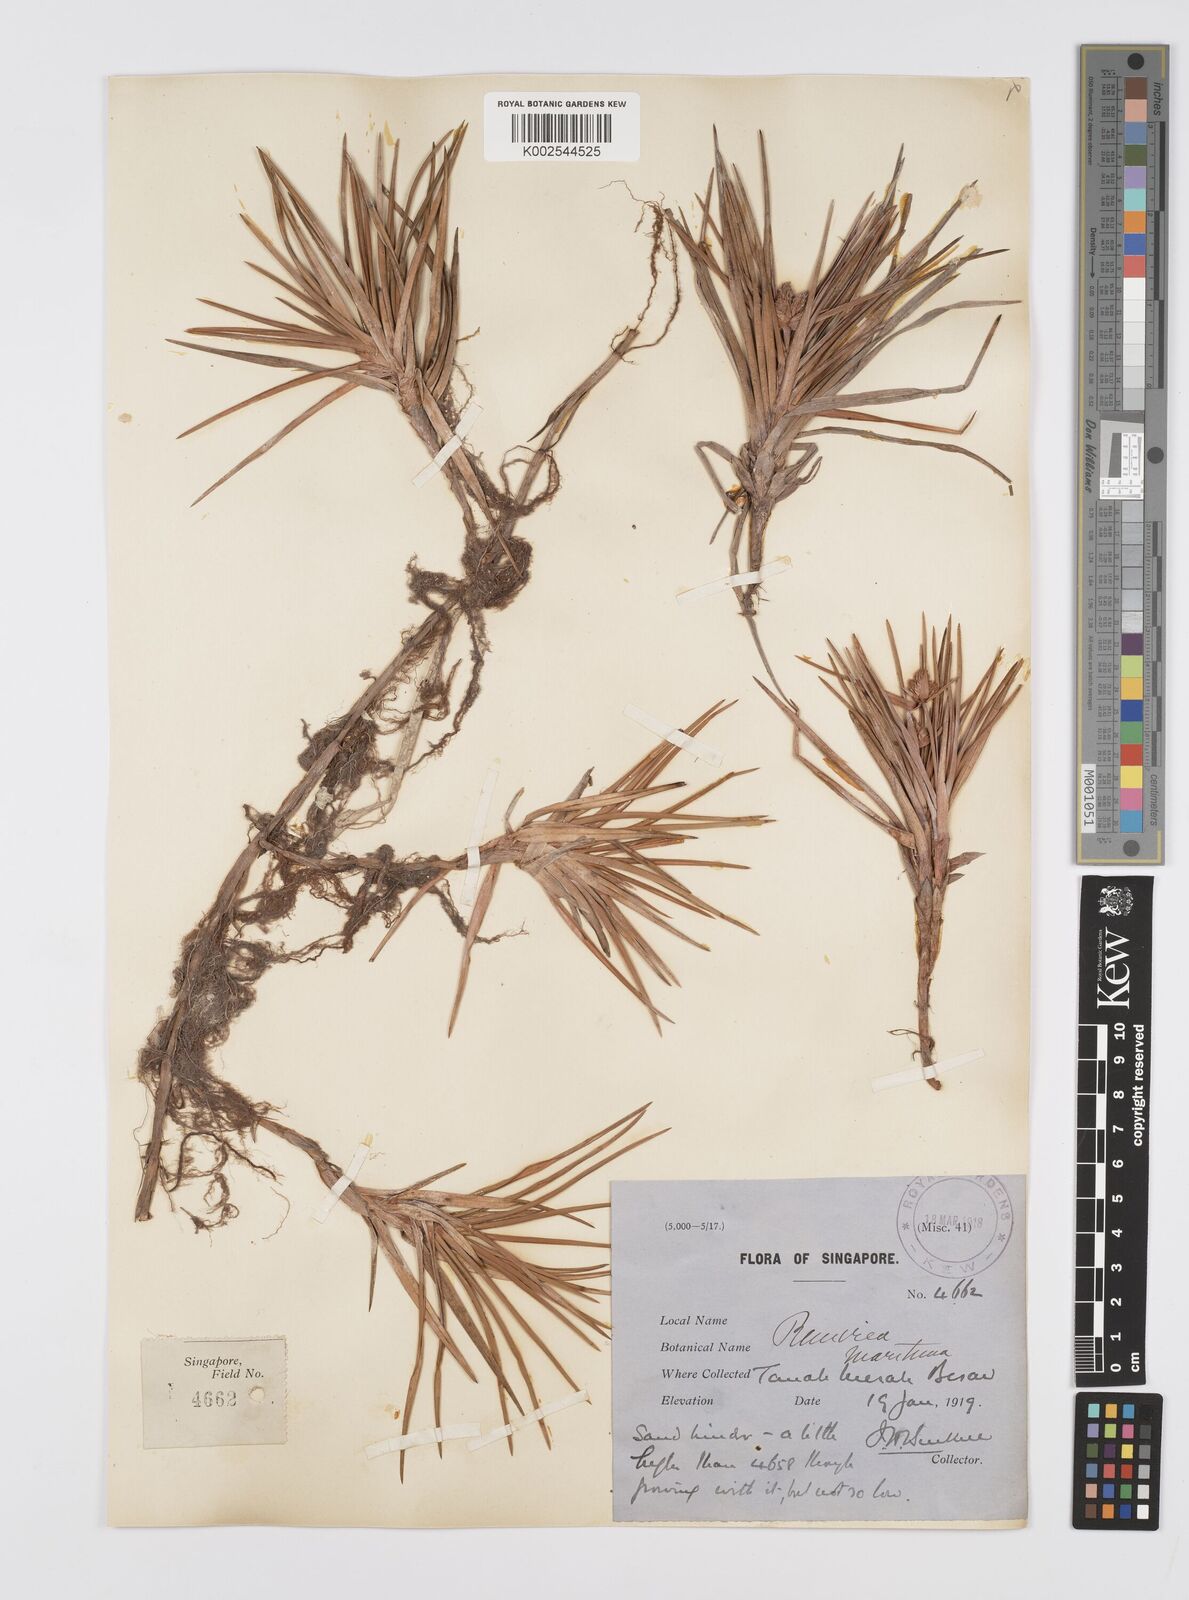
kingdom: Plantae
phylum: Tracheophyta
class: Liliopsida
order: Poales
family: Cyperaceae
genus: Cyperus
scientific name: Cyperus
